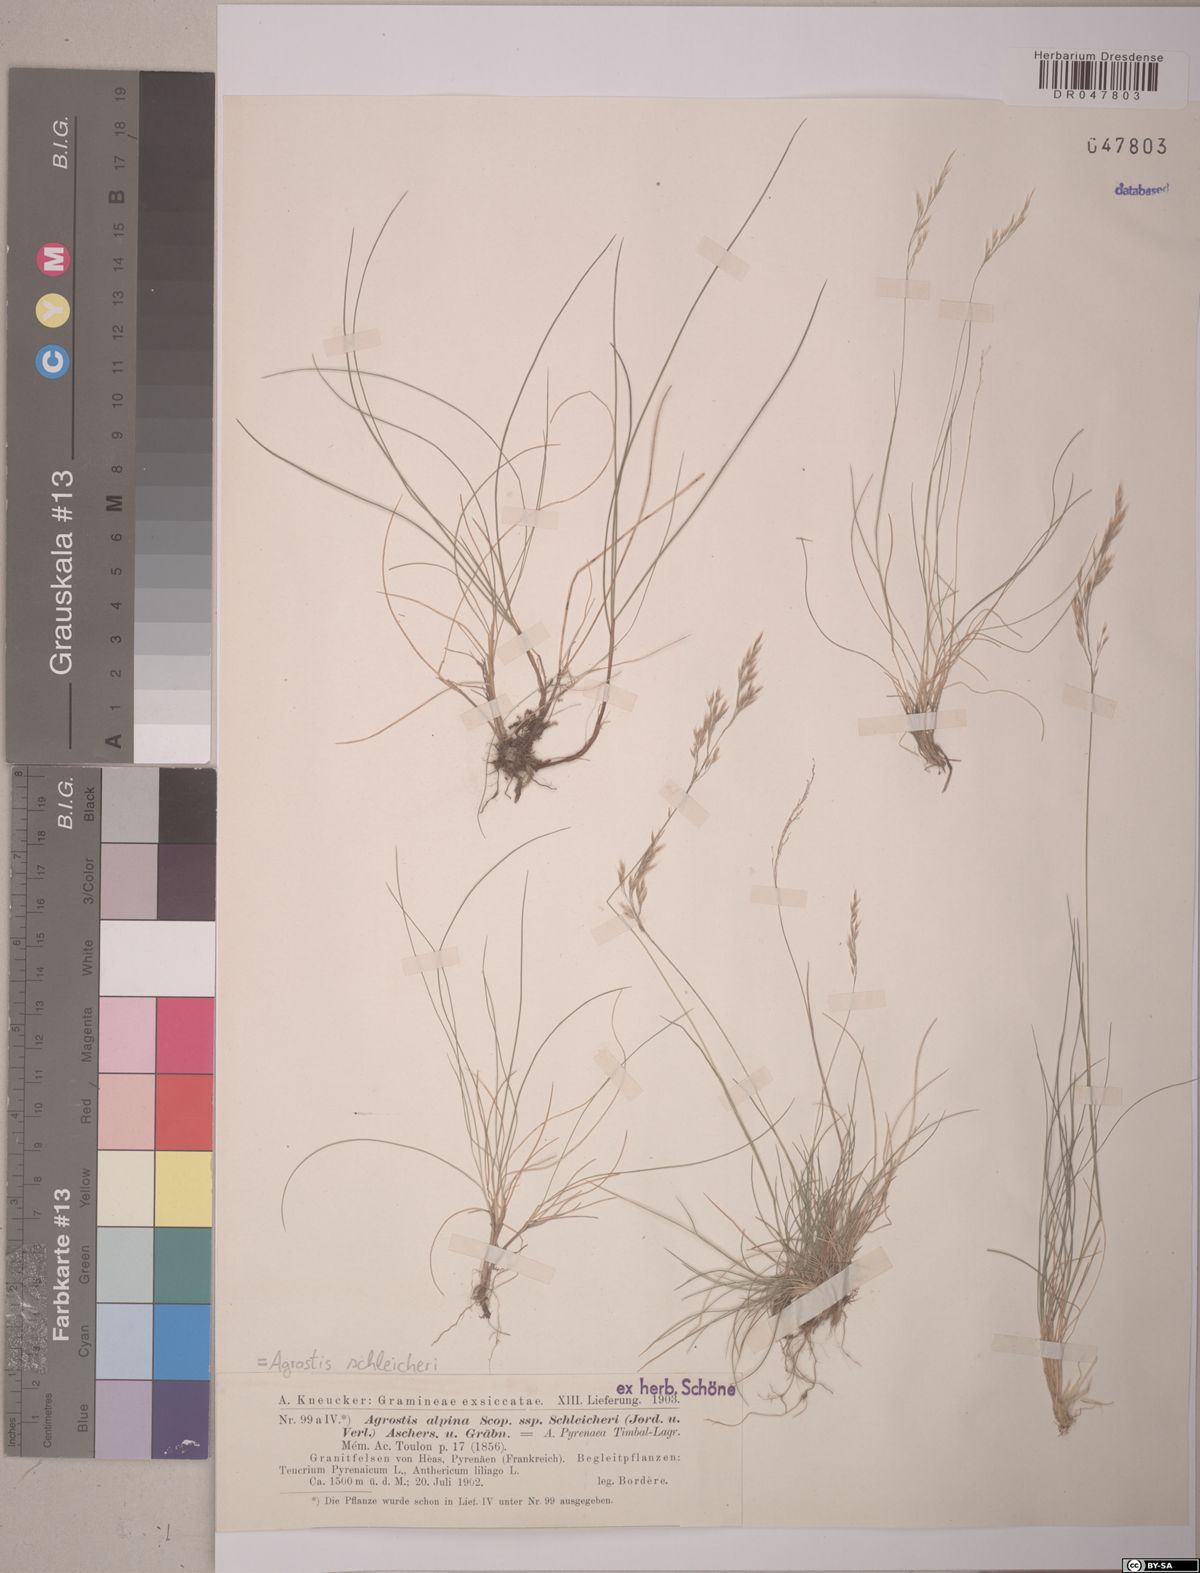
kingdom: Plantae
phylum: Tracheophyta
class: Liliopsida
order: Poales
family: Poaceae
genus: Alpagrostis
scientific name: Alpagrostis schleicheri
